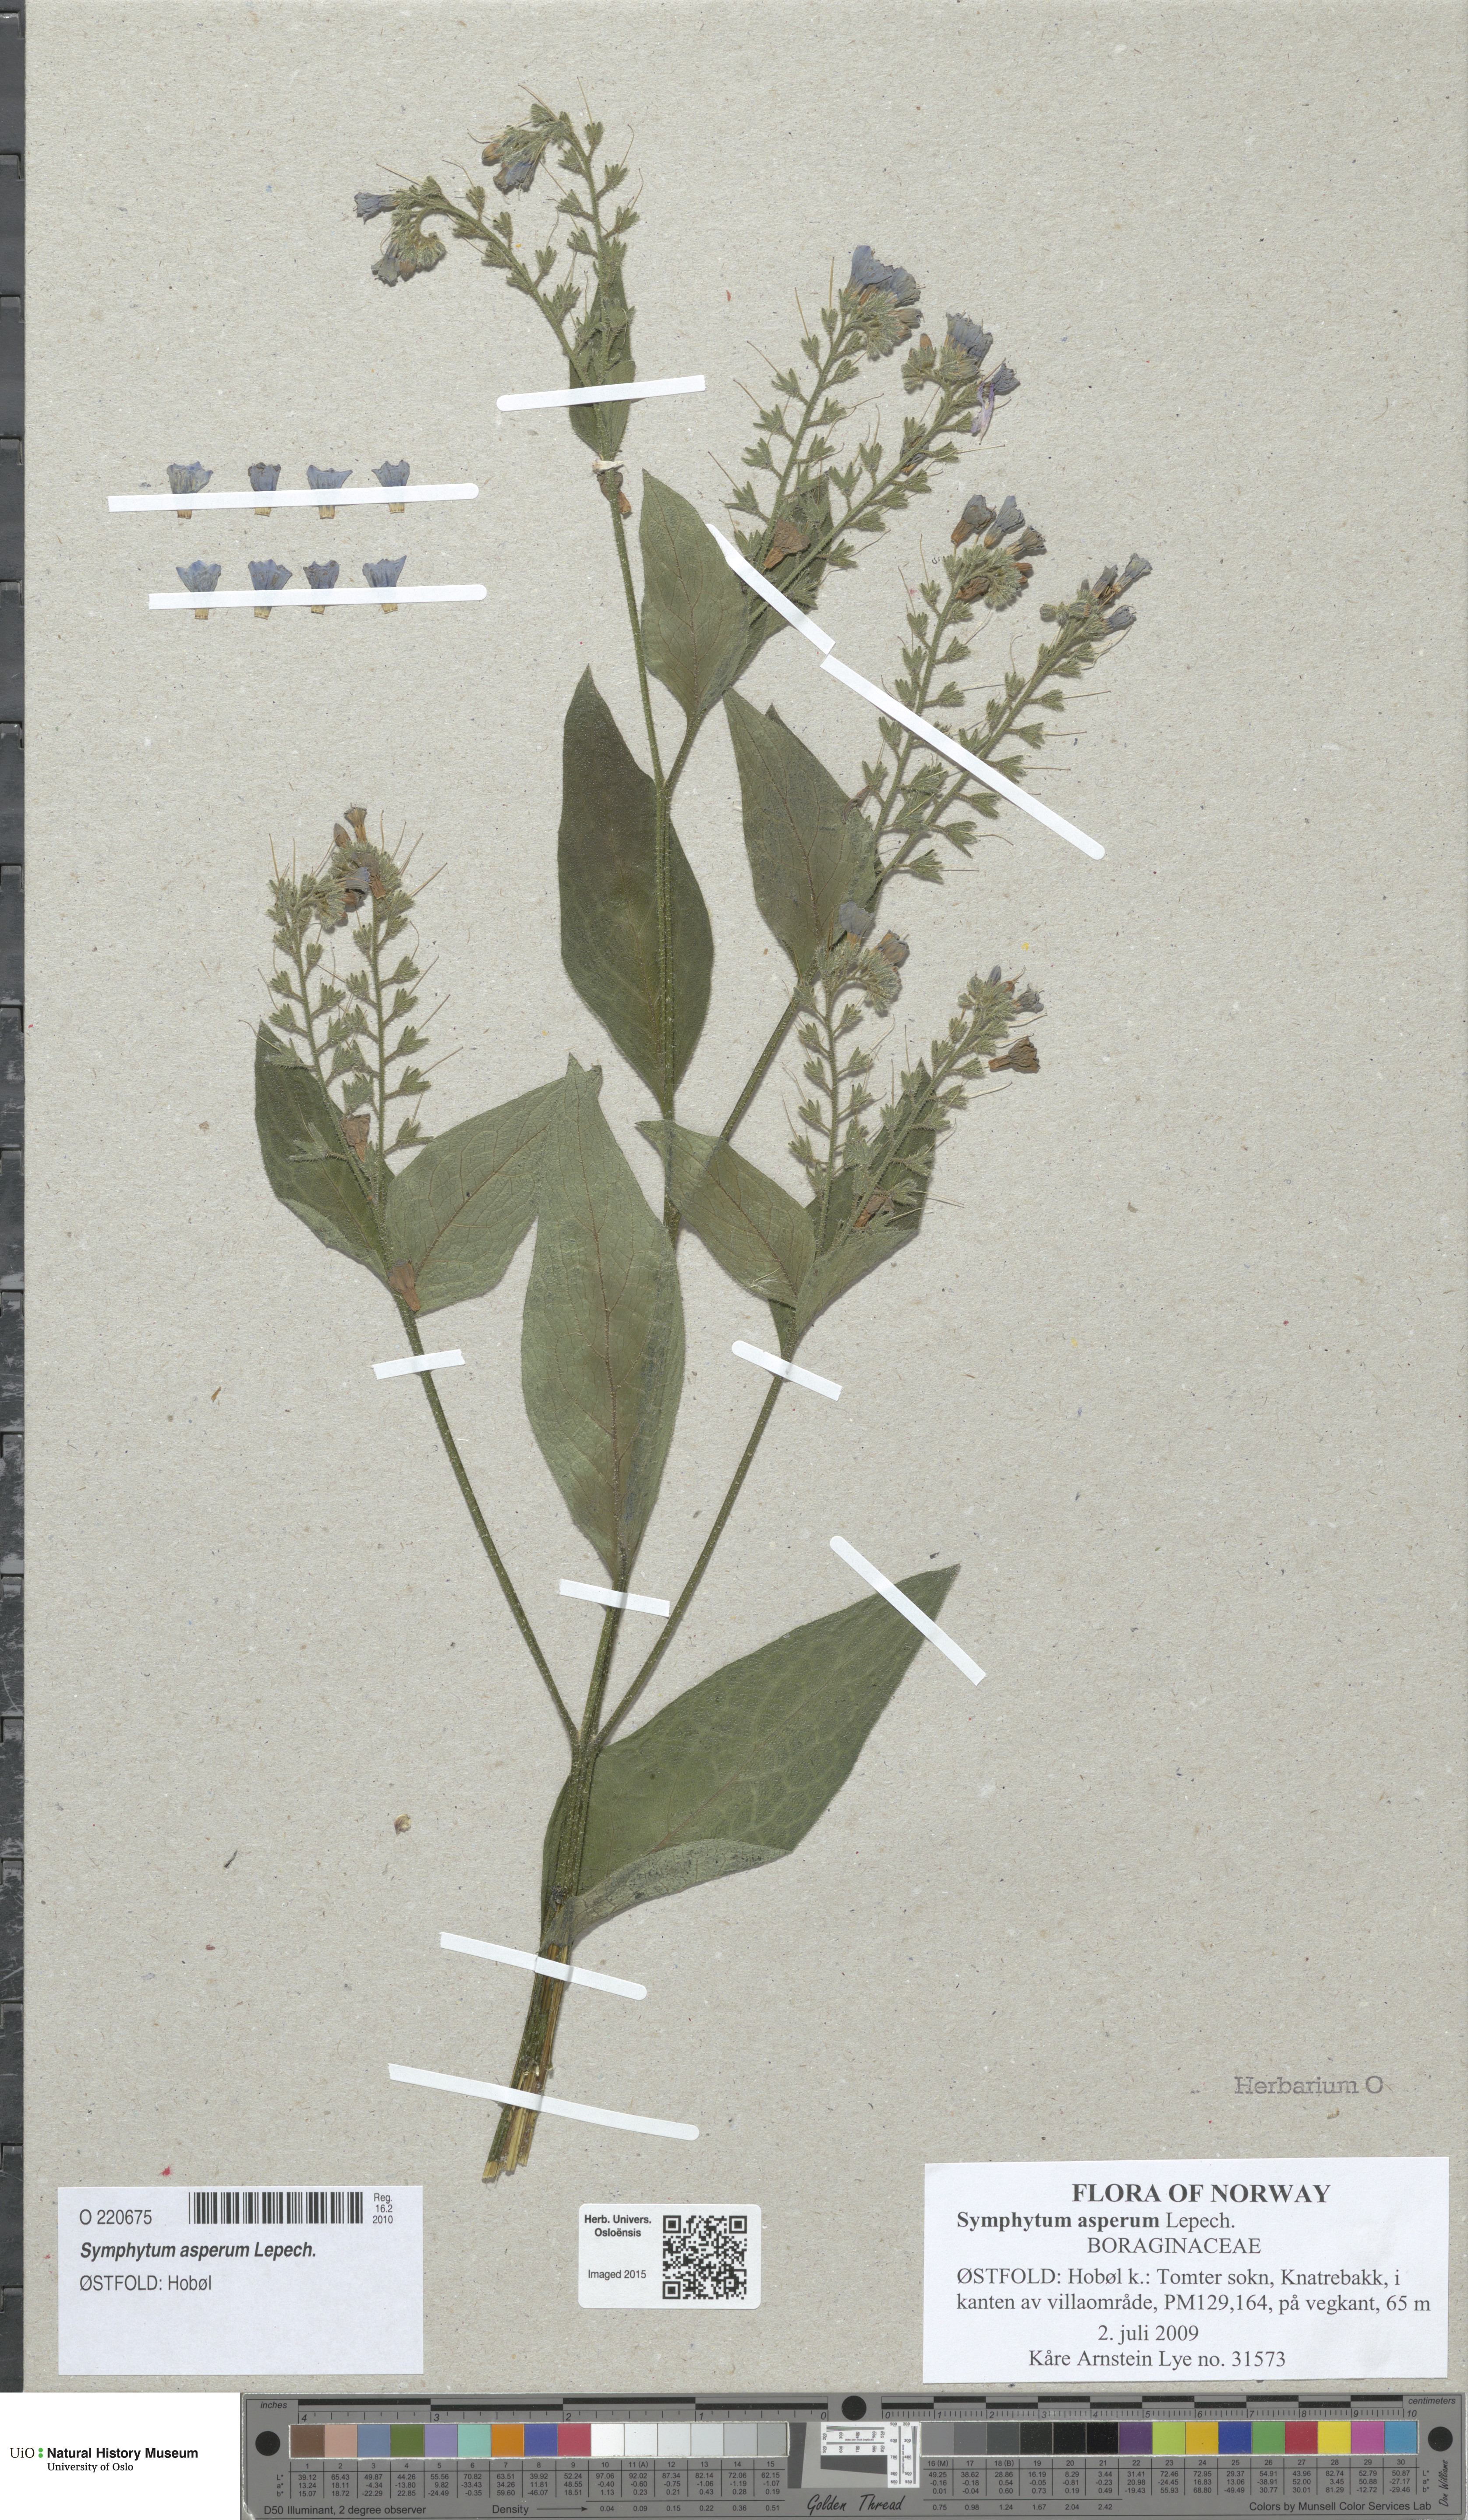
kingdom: Plantae
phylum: Tracheophyta
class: Magnoliopsida
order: Boraginales
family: Boraginaceae
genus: Symphytum
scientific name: Symphytum asperum
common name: Prickly comfrey
